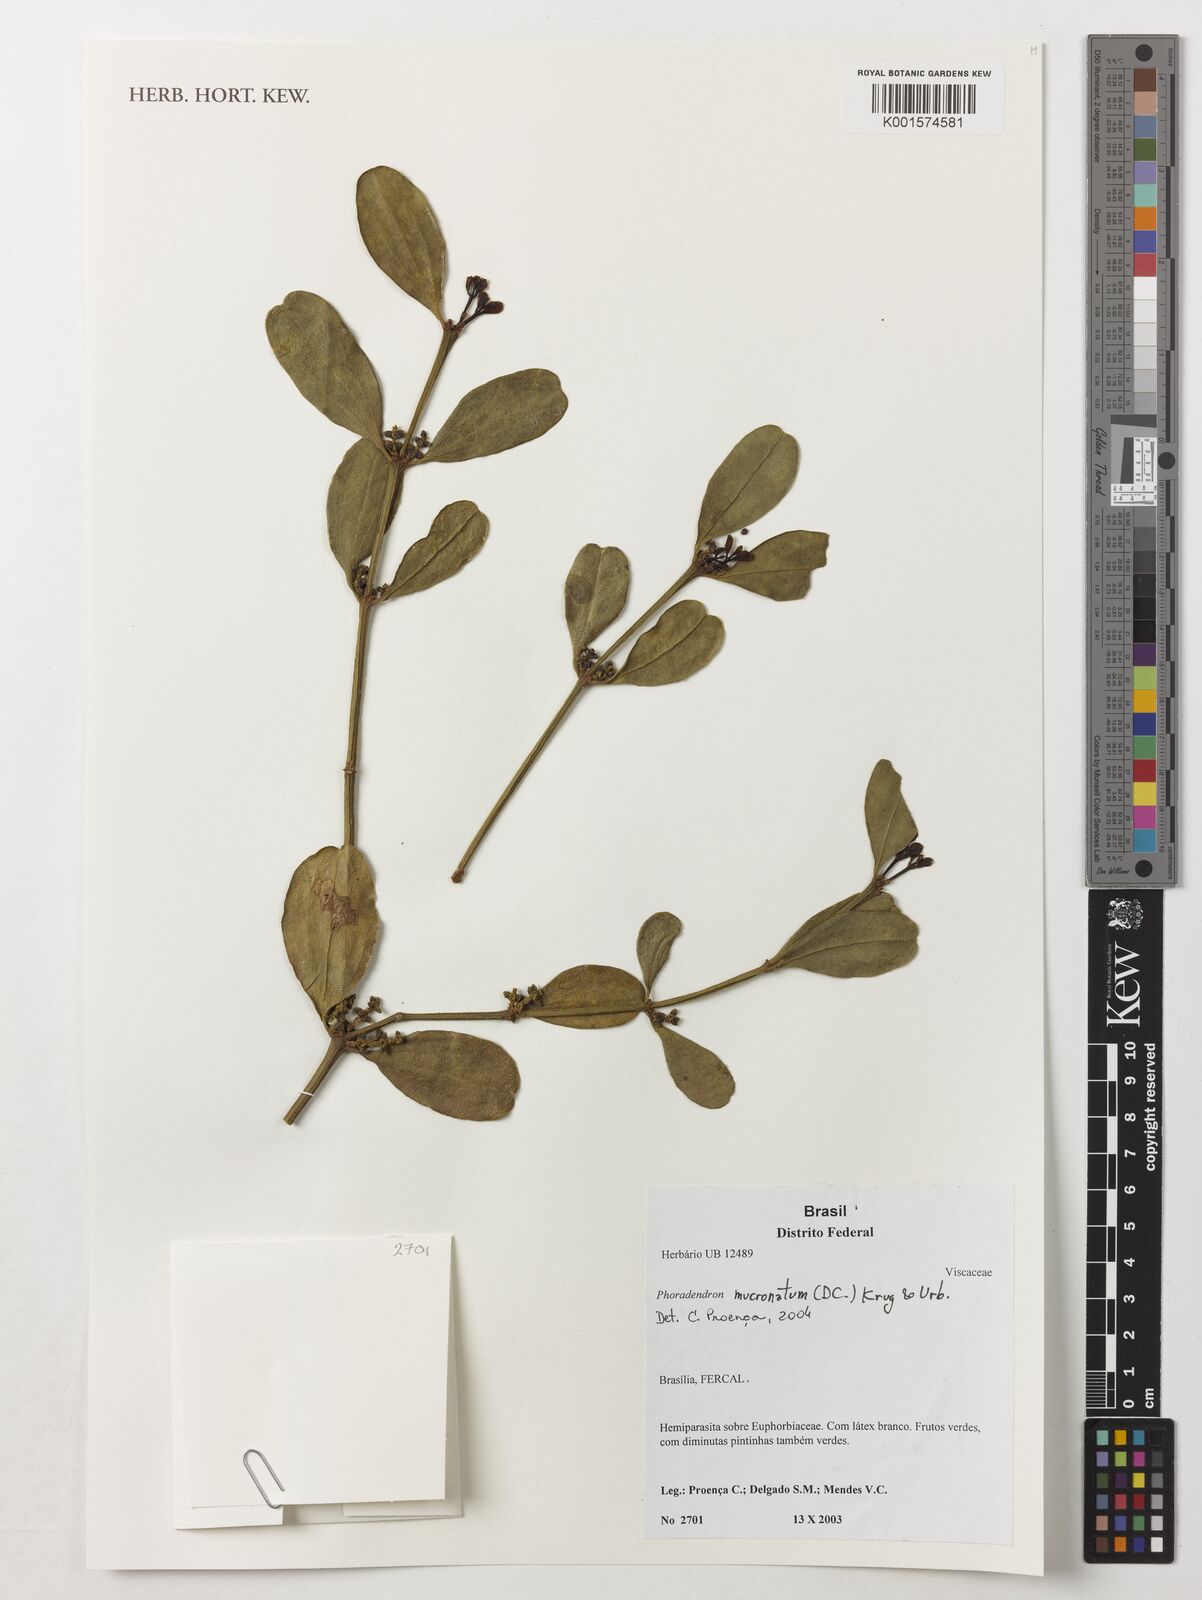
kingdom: Plantae
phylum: Tracheophyta
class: Magnoliopsida
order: Santalales
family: Viscaceae
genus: Phoradendron
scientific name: Phoradendron mucronatum
